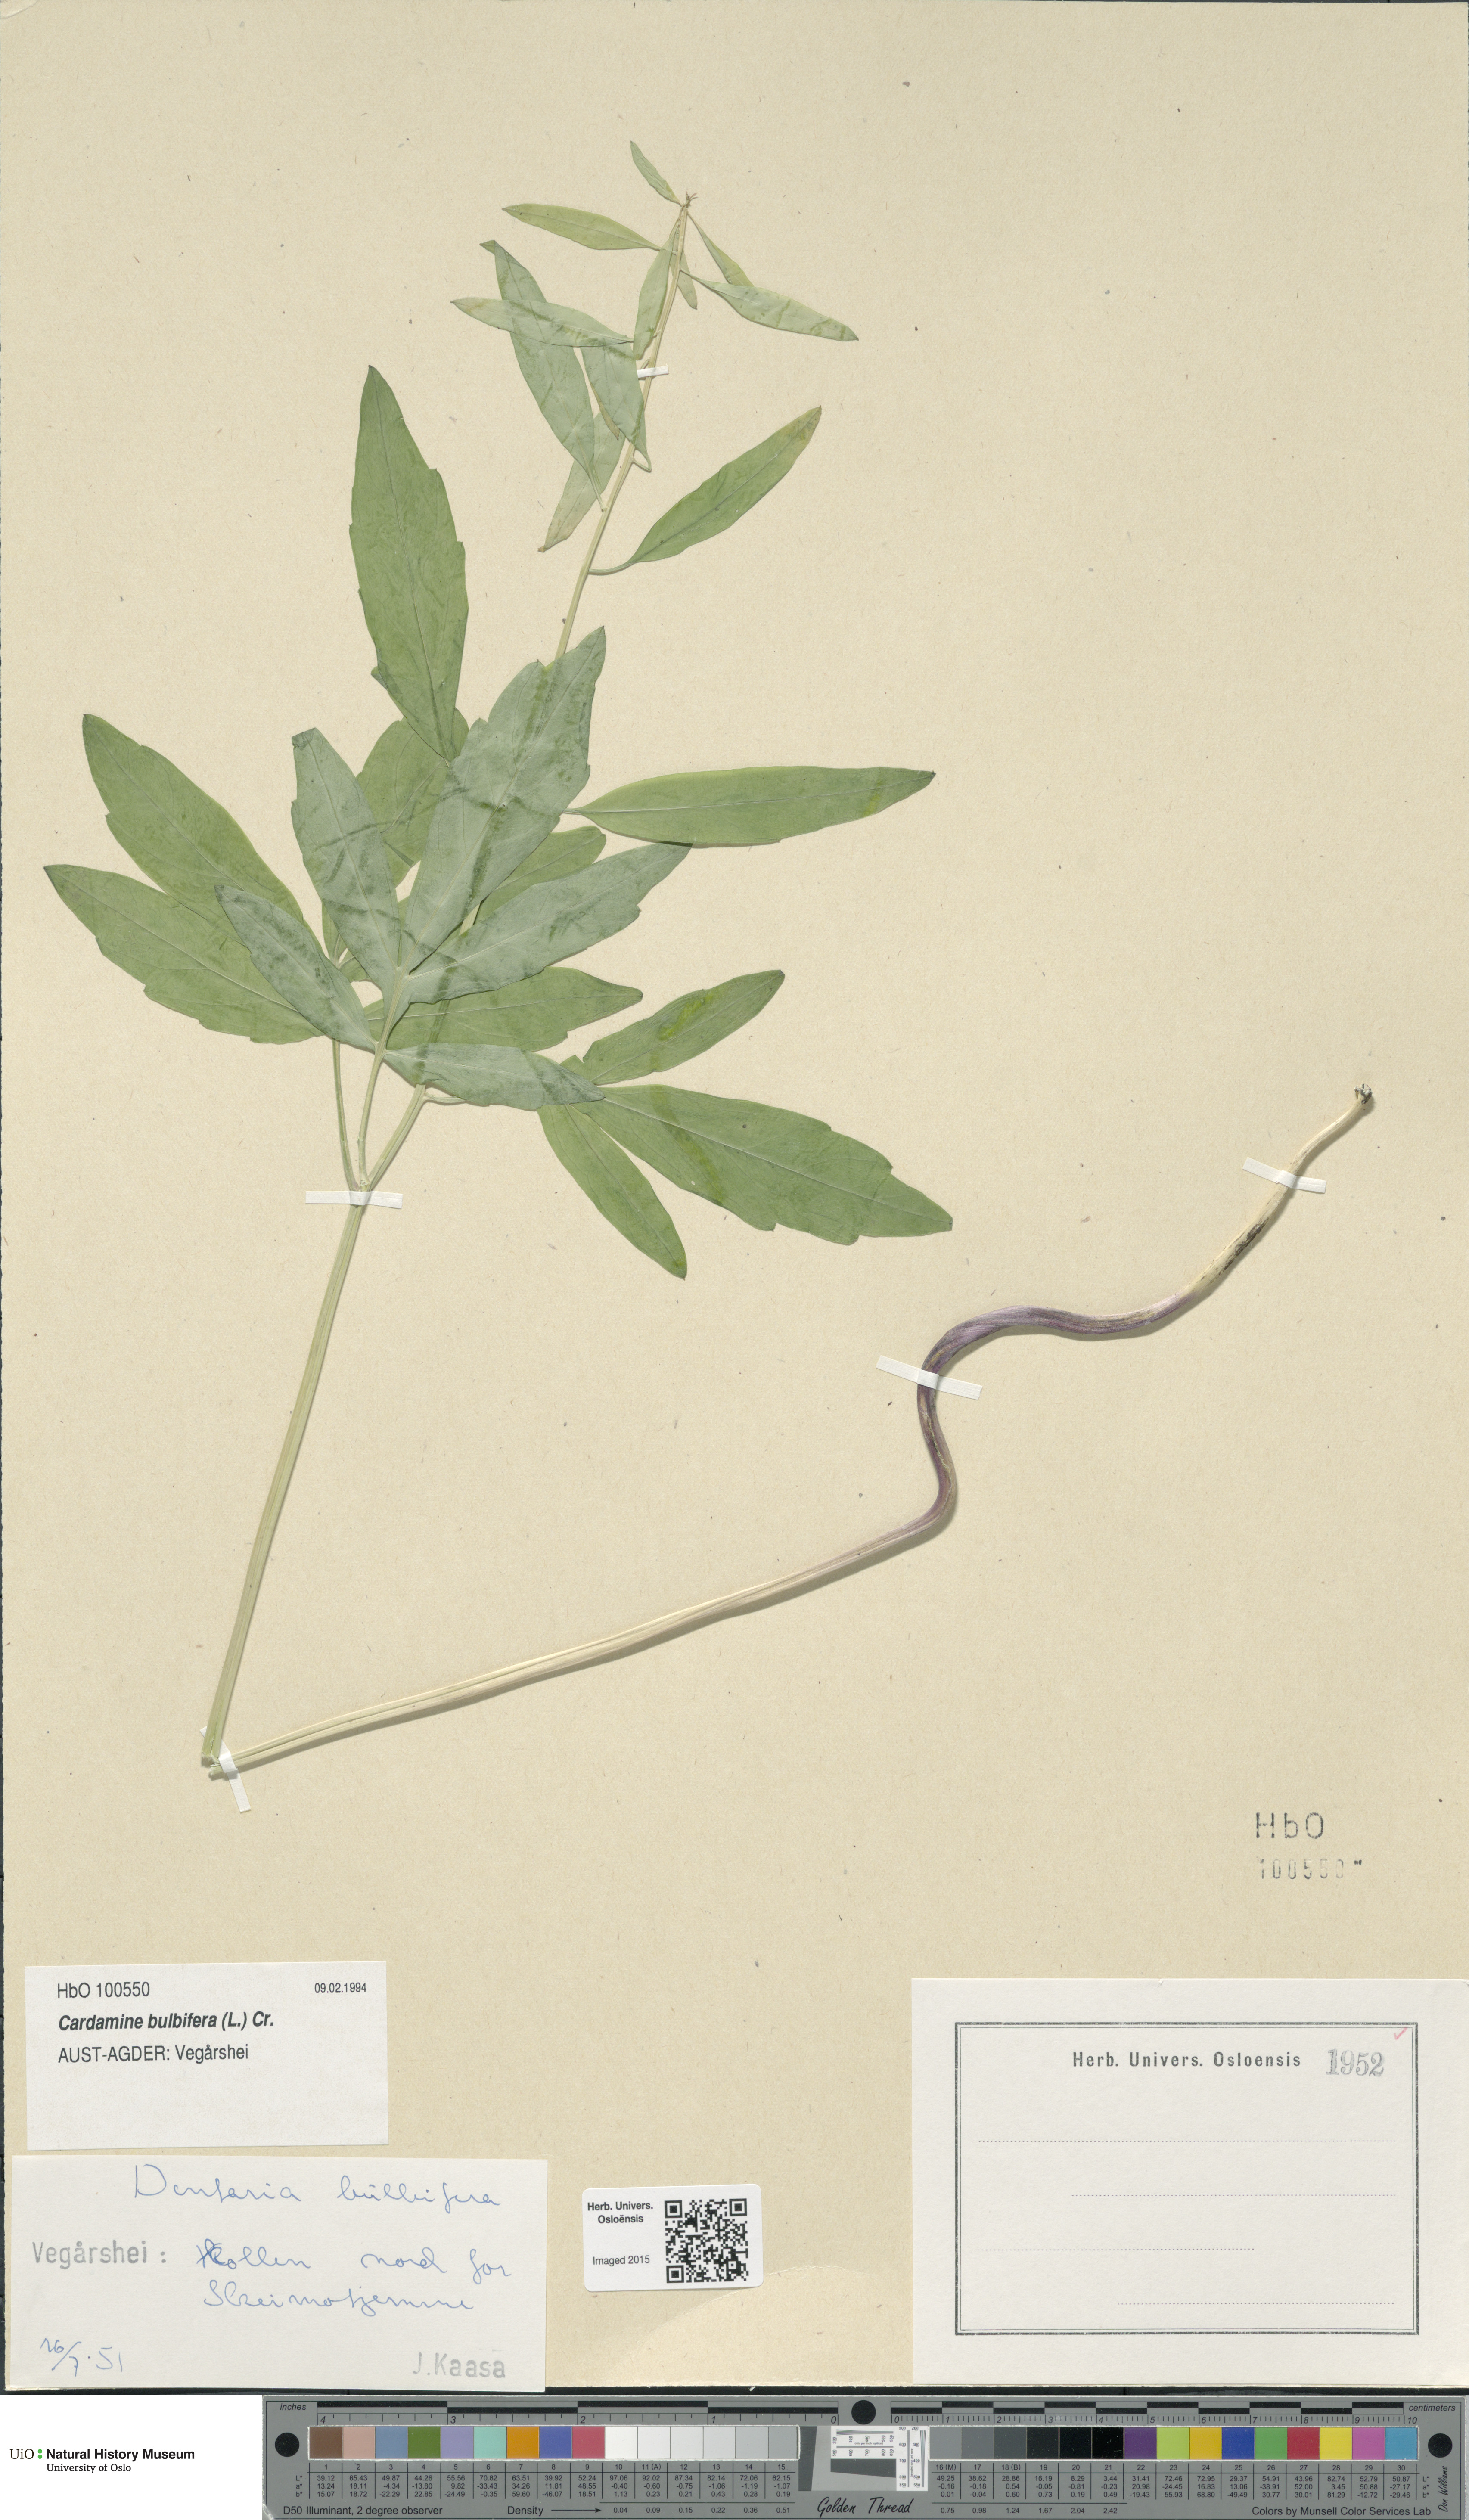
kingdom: Plantae
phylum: Tracheophyta
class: Magnoliopsida
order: Brassicales
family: Brassicaceae
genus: Cardamine
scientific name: Cardamine bulbifera
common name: Coralroot bittercress
